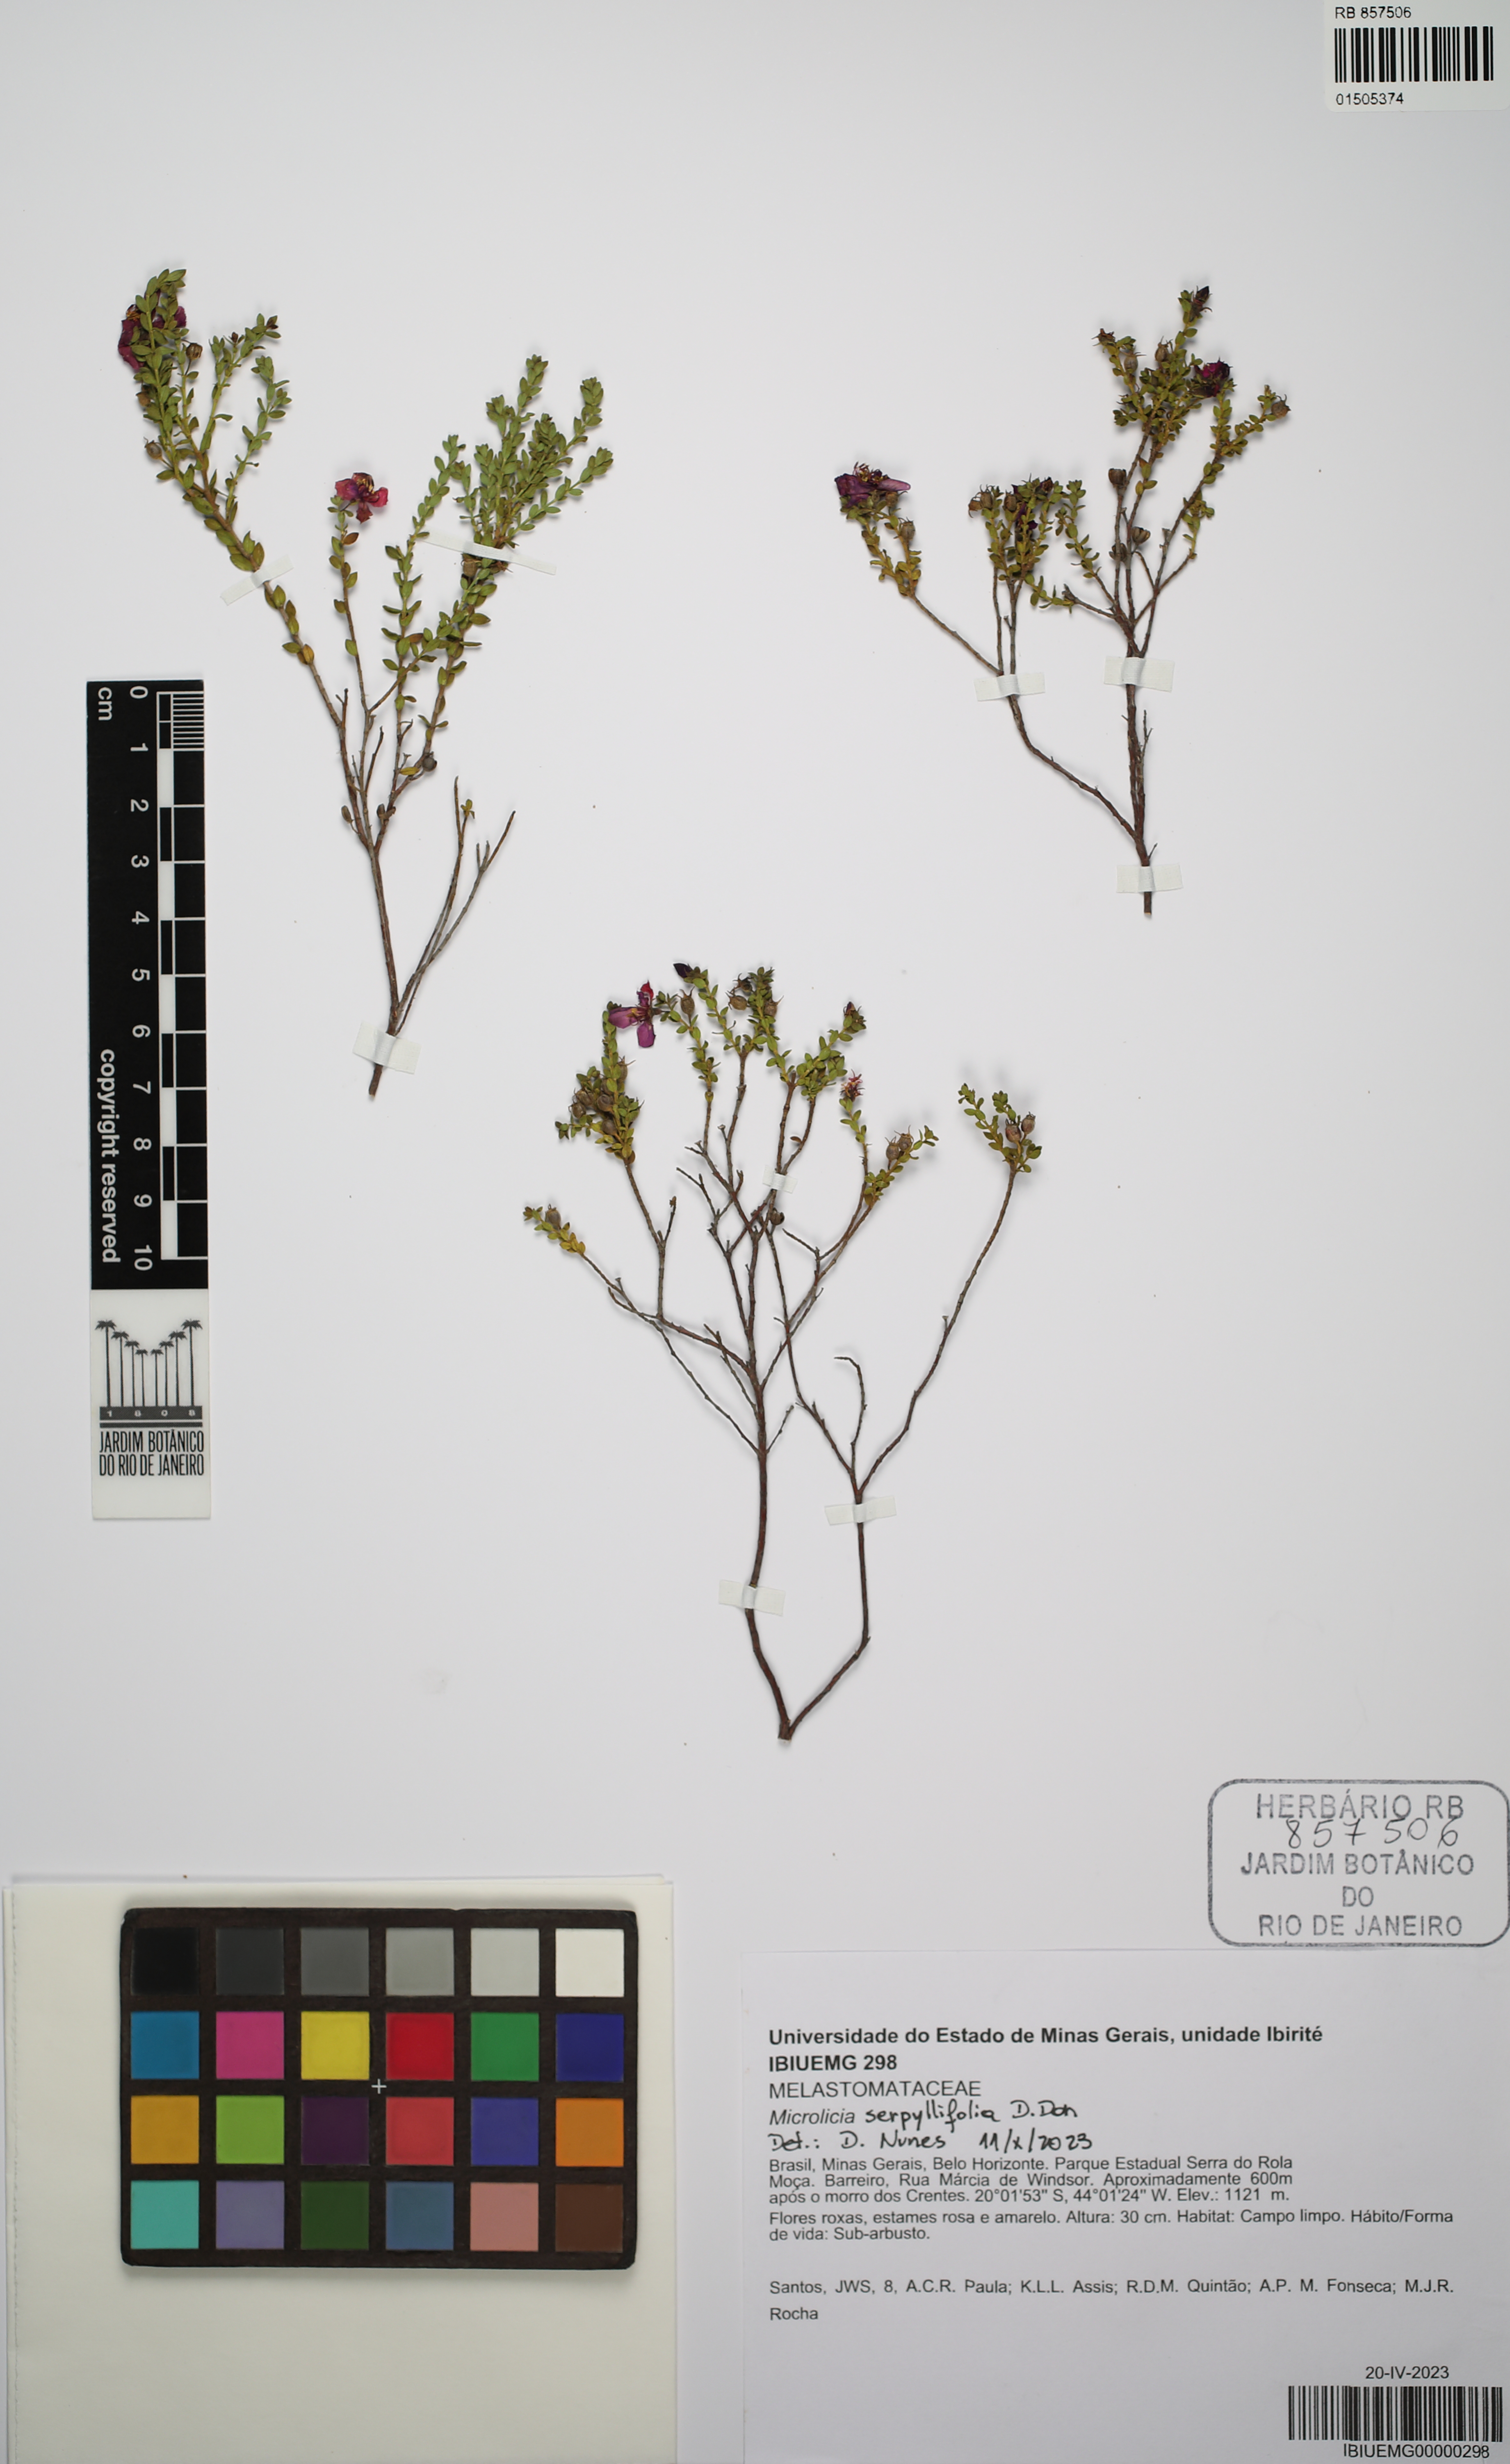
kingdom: Plantae
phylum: Tracheophyta
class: Magnoliopsida
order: Myrtales
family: Melastomataceae
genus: Microlicia
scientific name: Microlicia fulva
